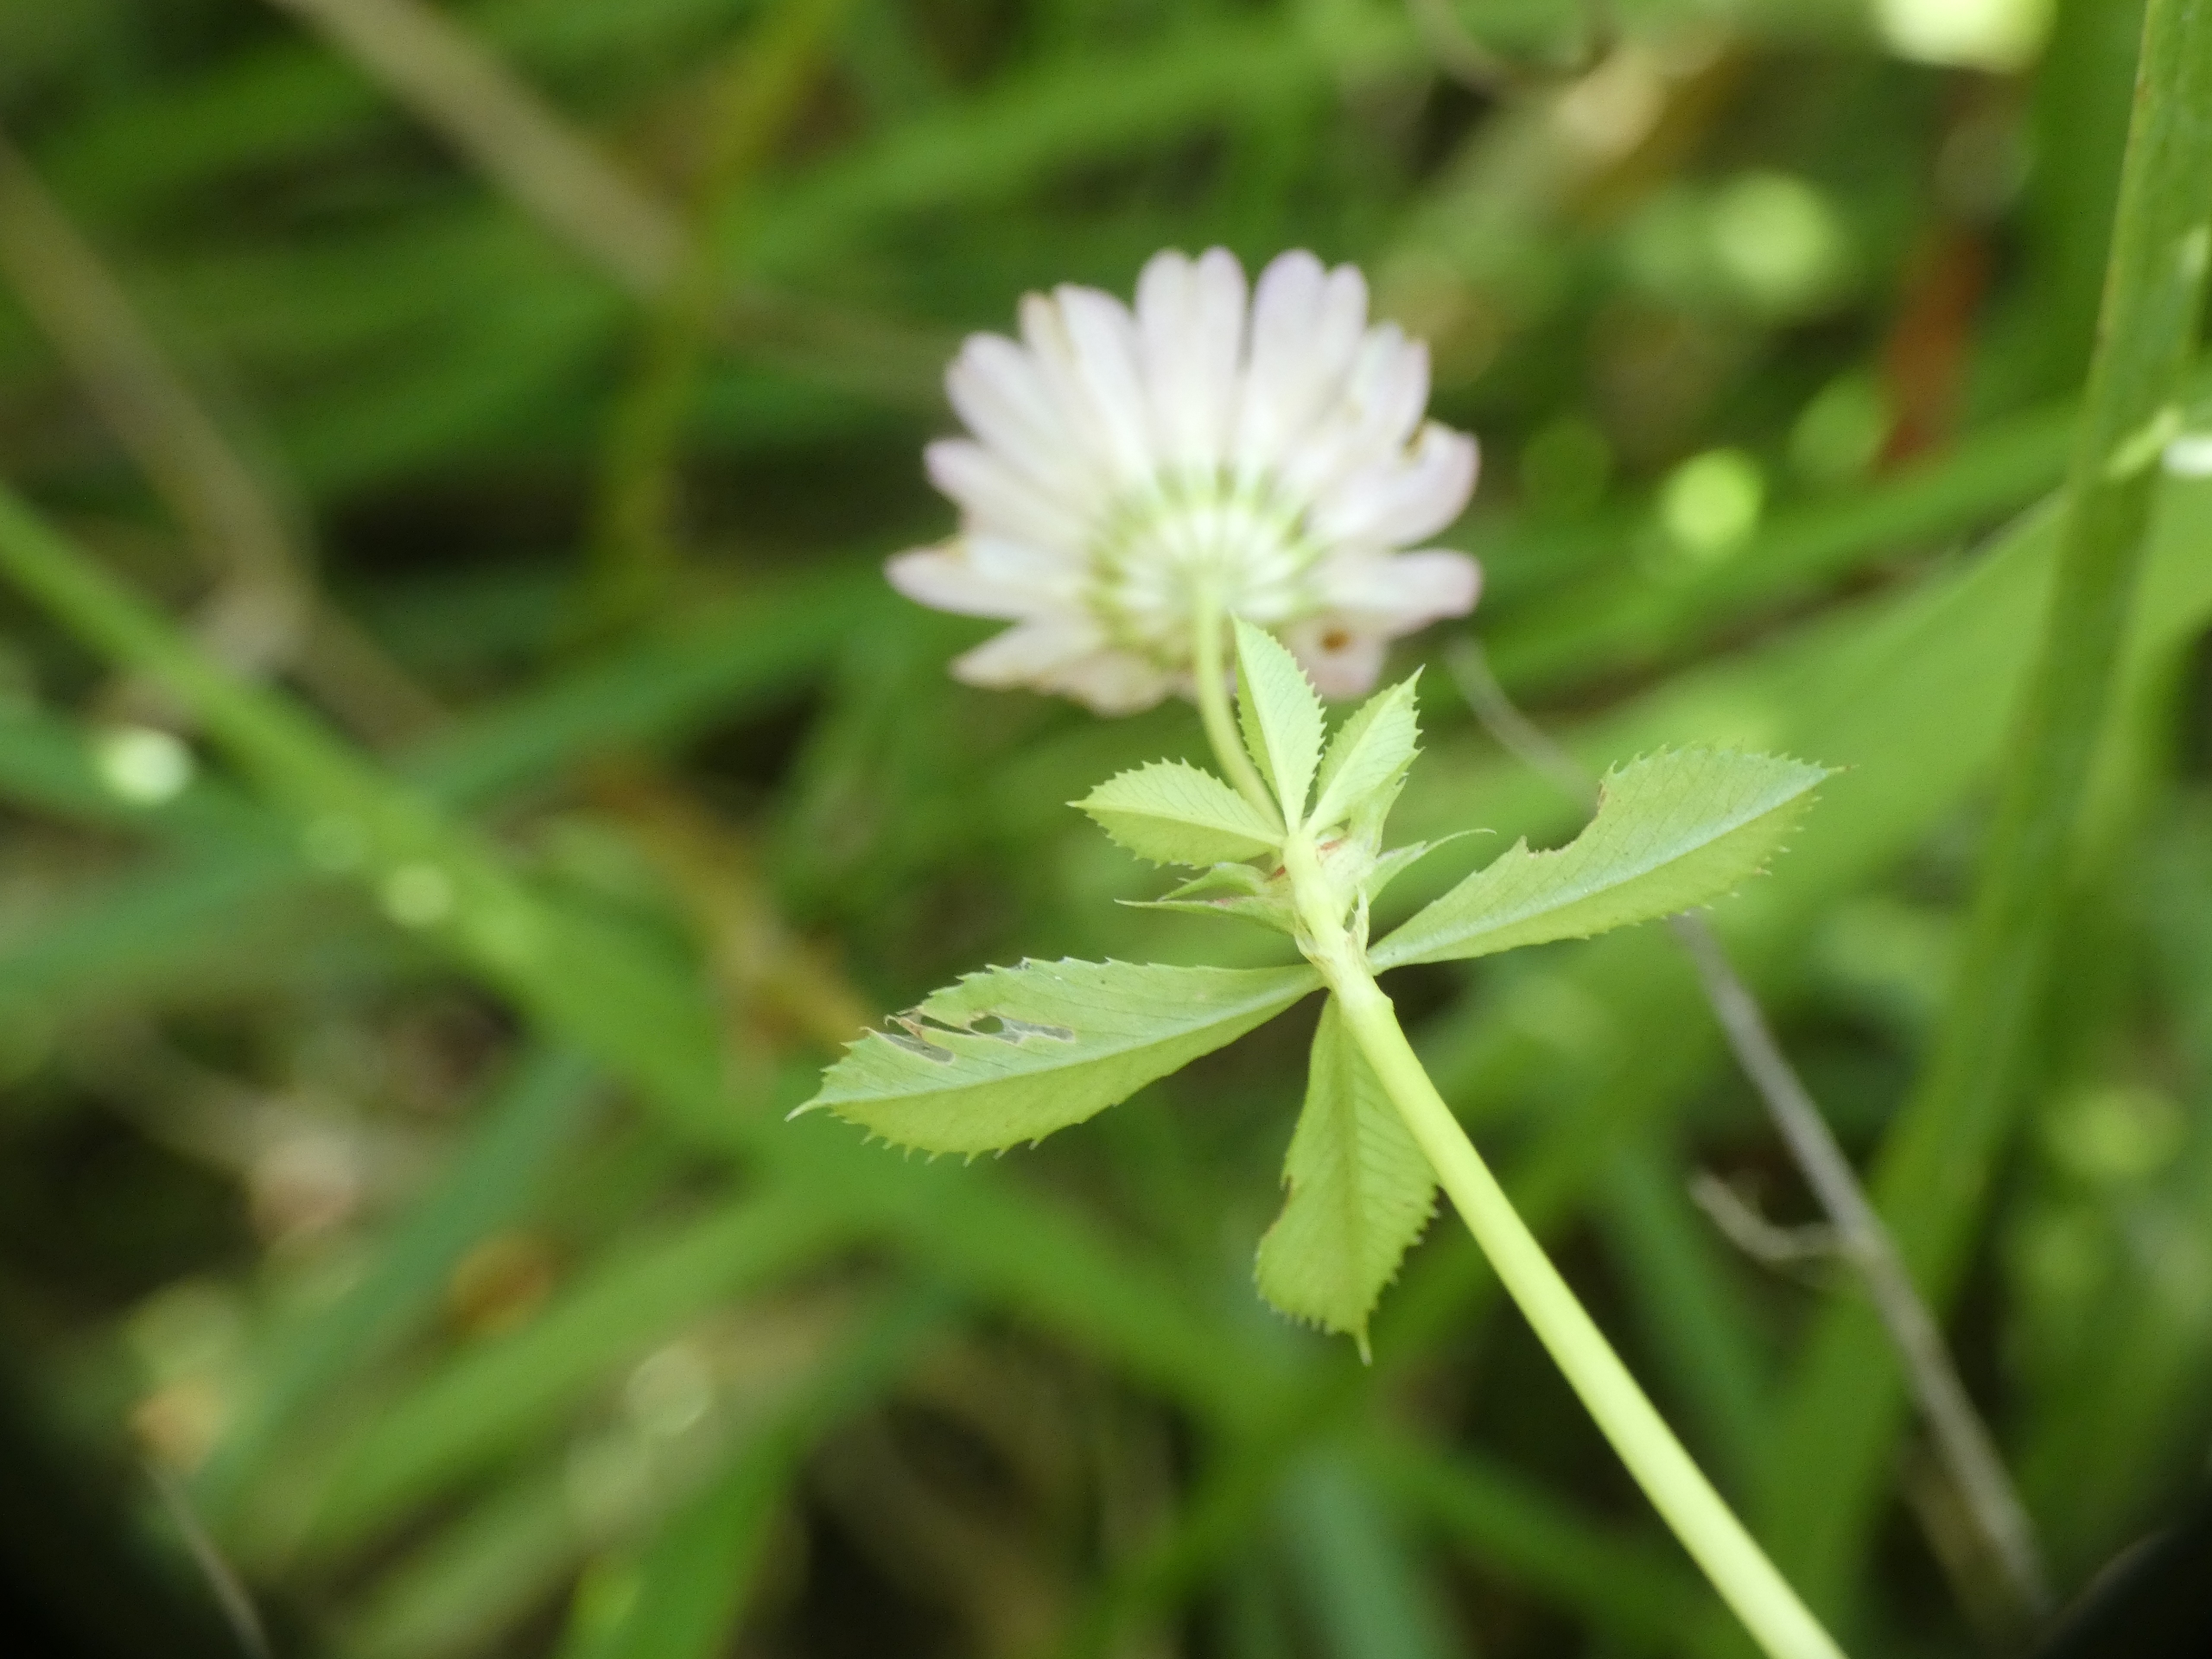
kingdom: Plantae
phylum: Tracheophyta
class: Magnoliopsida
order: Fabales
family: Fabaceae
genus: Trifolium
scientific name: Trifolium resupinatum
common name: Omvendt kløver
